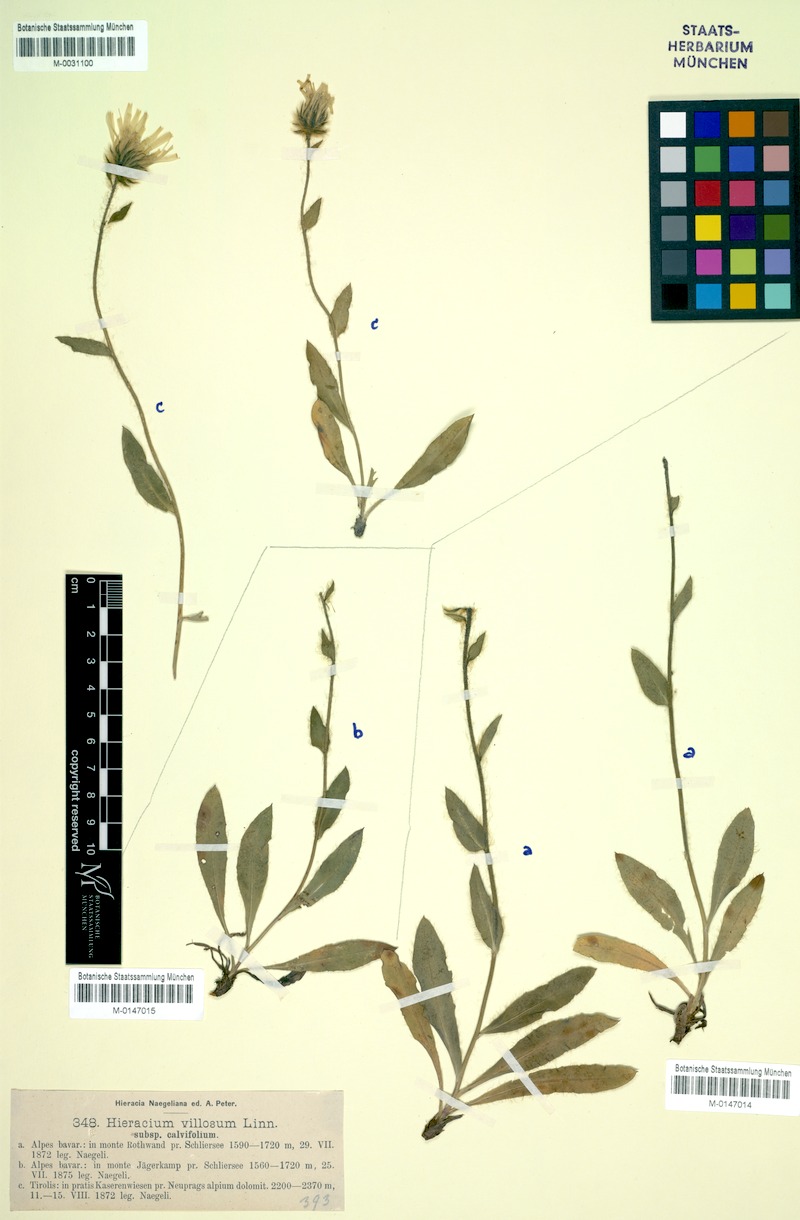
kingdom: Plantae
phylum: Tracheophyta
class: Magnoliopsida
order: Asterales
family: Asteraceae
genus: Hieracium
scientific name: Hieracium villosum
